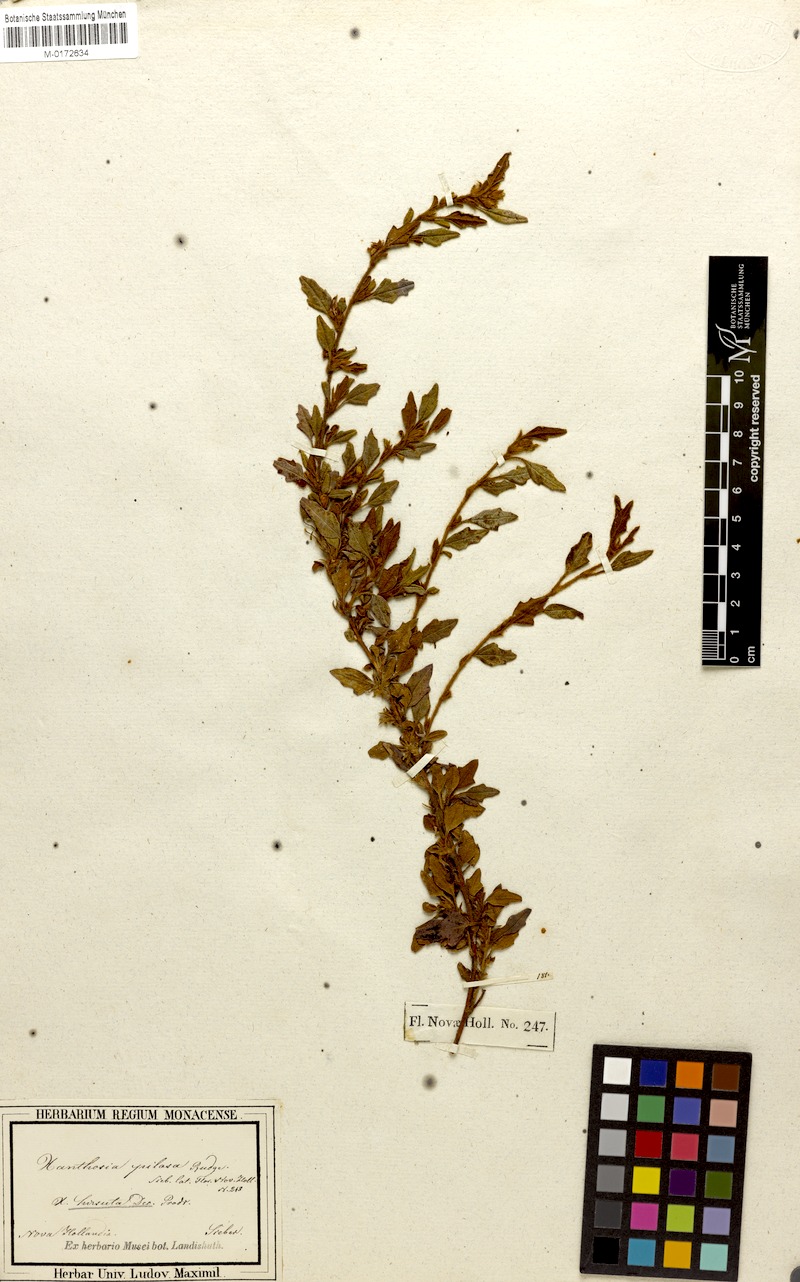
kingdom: Plantae
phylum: Tracheophyta
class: Magnoliopsida
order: Apiales
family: Apiaceae
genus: Xanthosia
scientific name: Xanthosia pilosa
